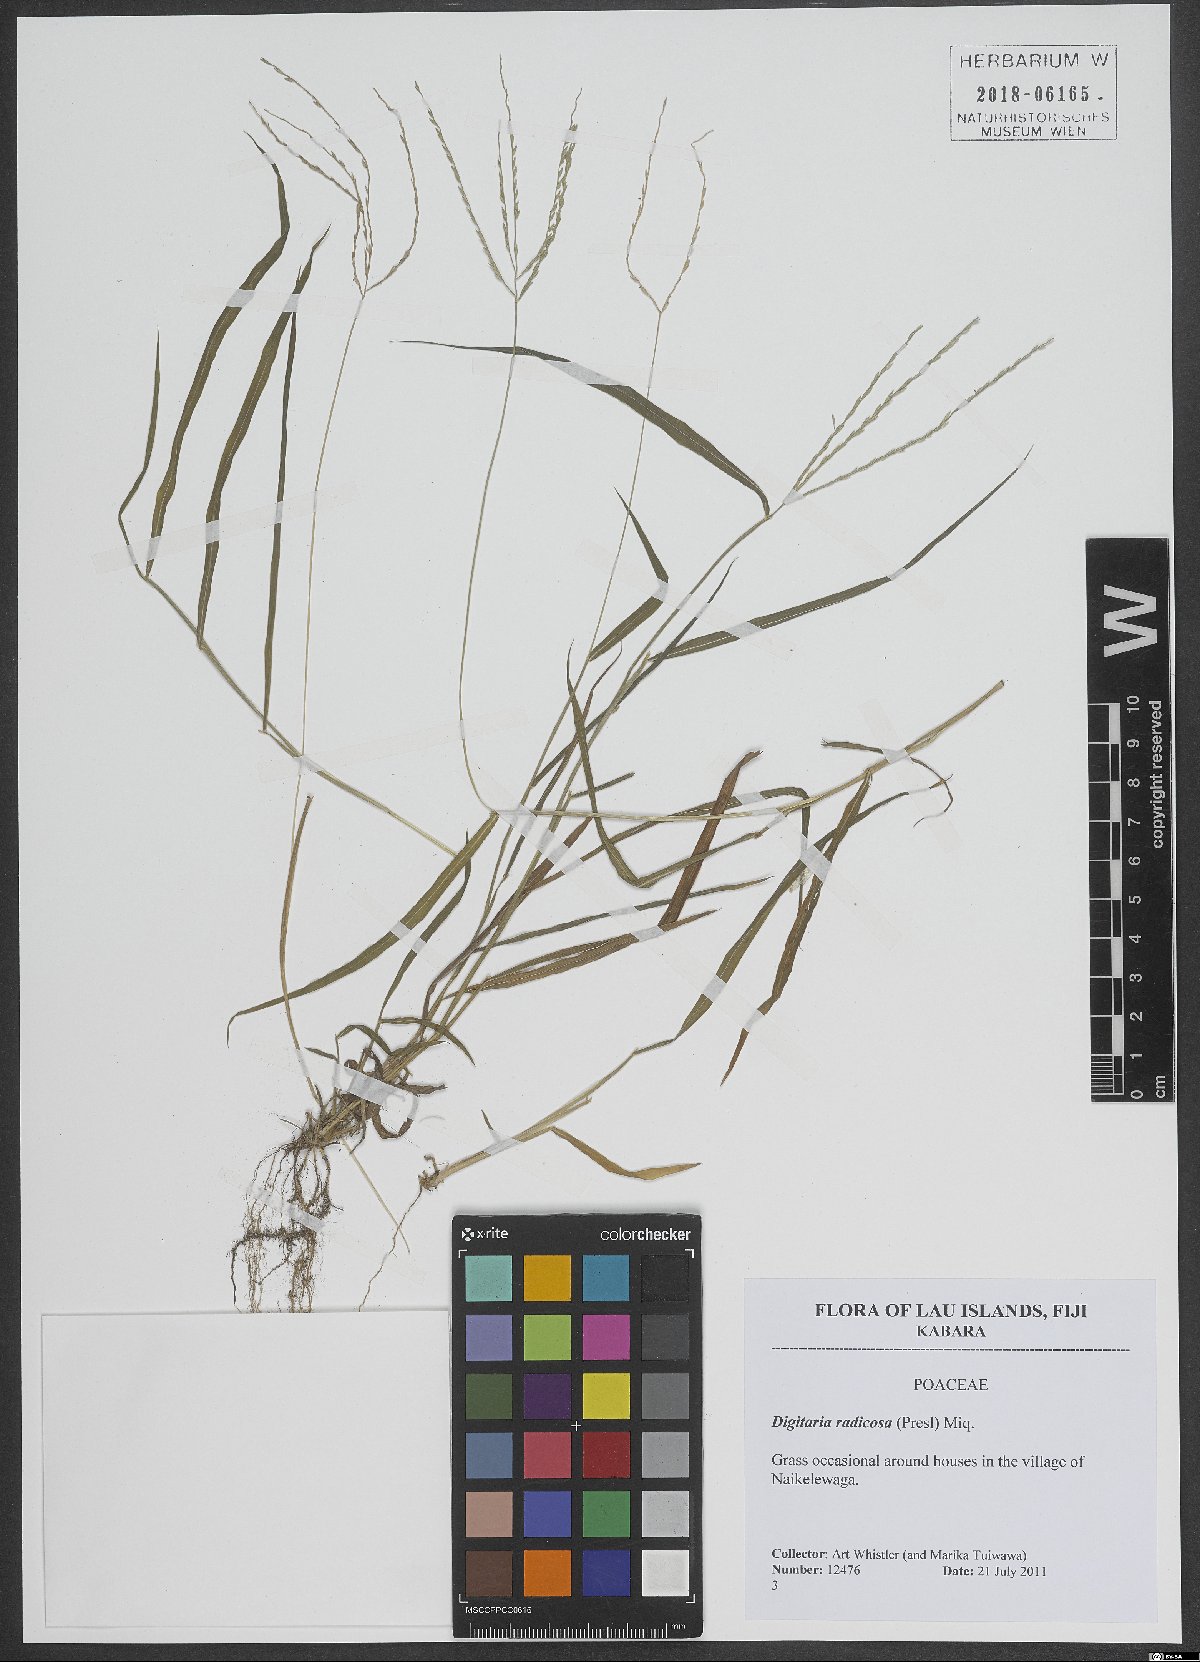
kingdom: Plantae
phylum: Tracheophyta
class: Liliopsida
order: Poales
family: Poaceae
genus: Digitaria
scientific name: Digitaria radicosa
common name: Trailing crabgrass
